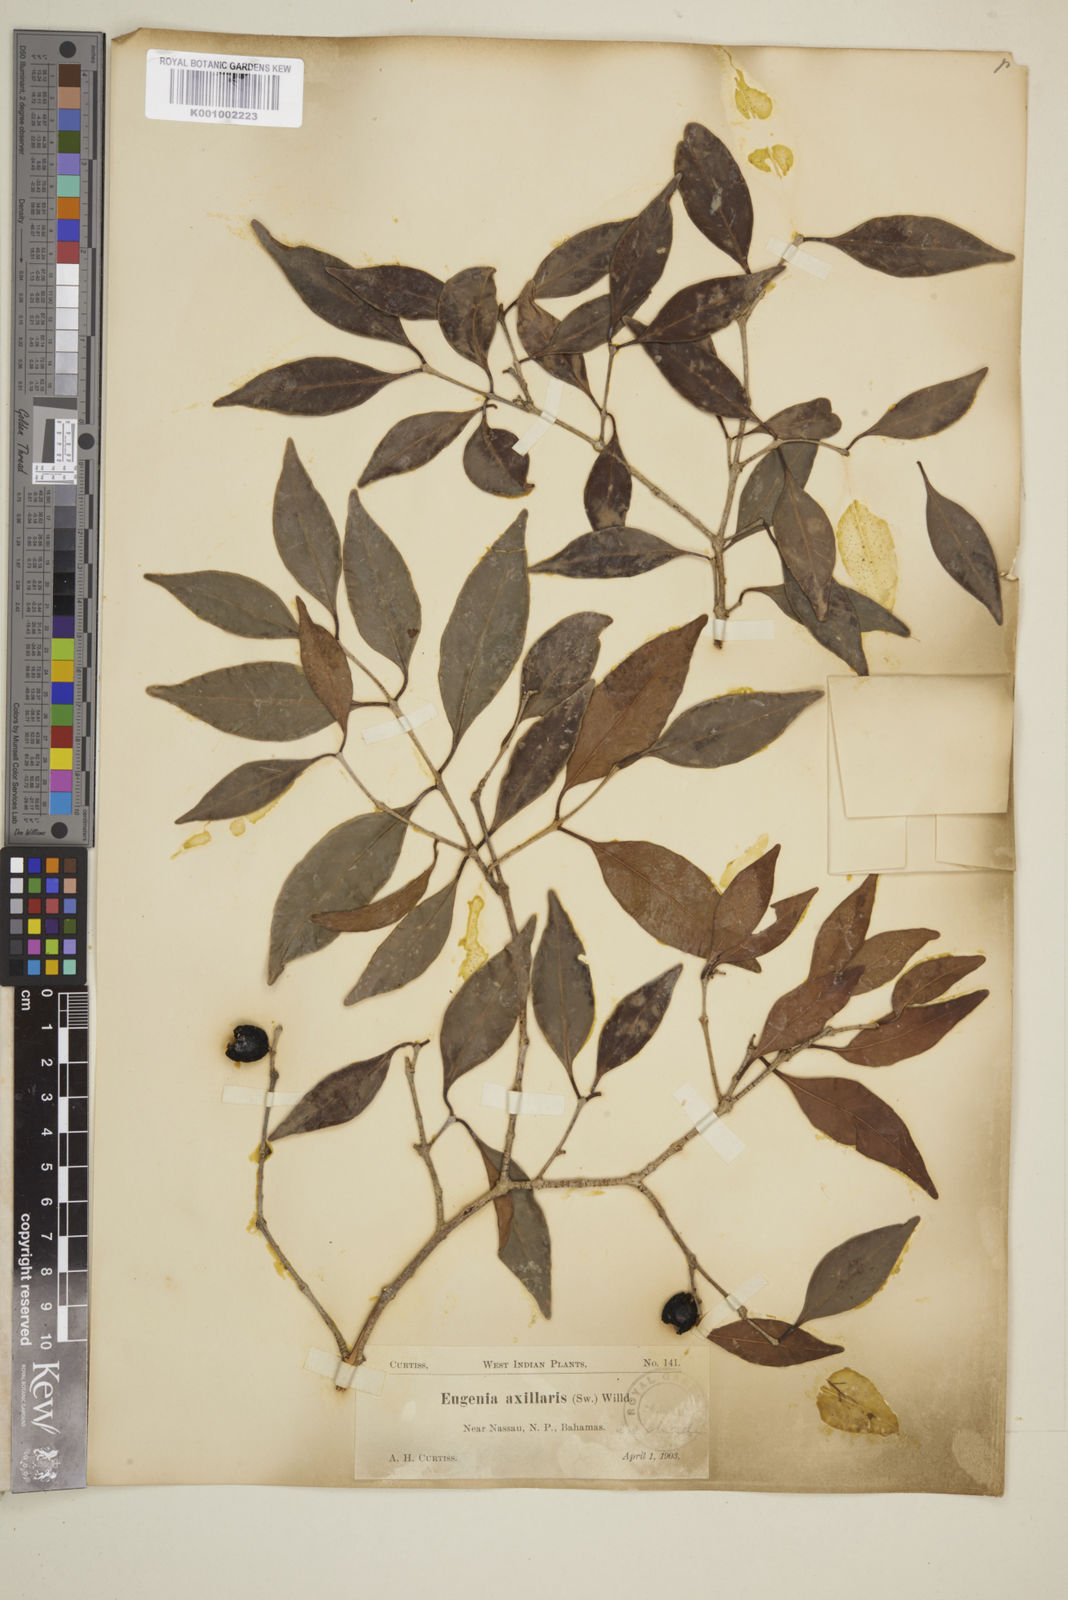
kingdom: Plantae
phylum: Tracheophyta
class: Magnoliopsida
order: Myrtales
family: Myrtaceae
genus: Eugenia
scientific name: Eugenia axillaris
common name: Choaky berry
